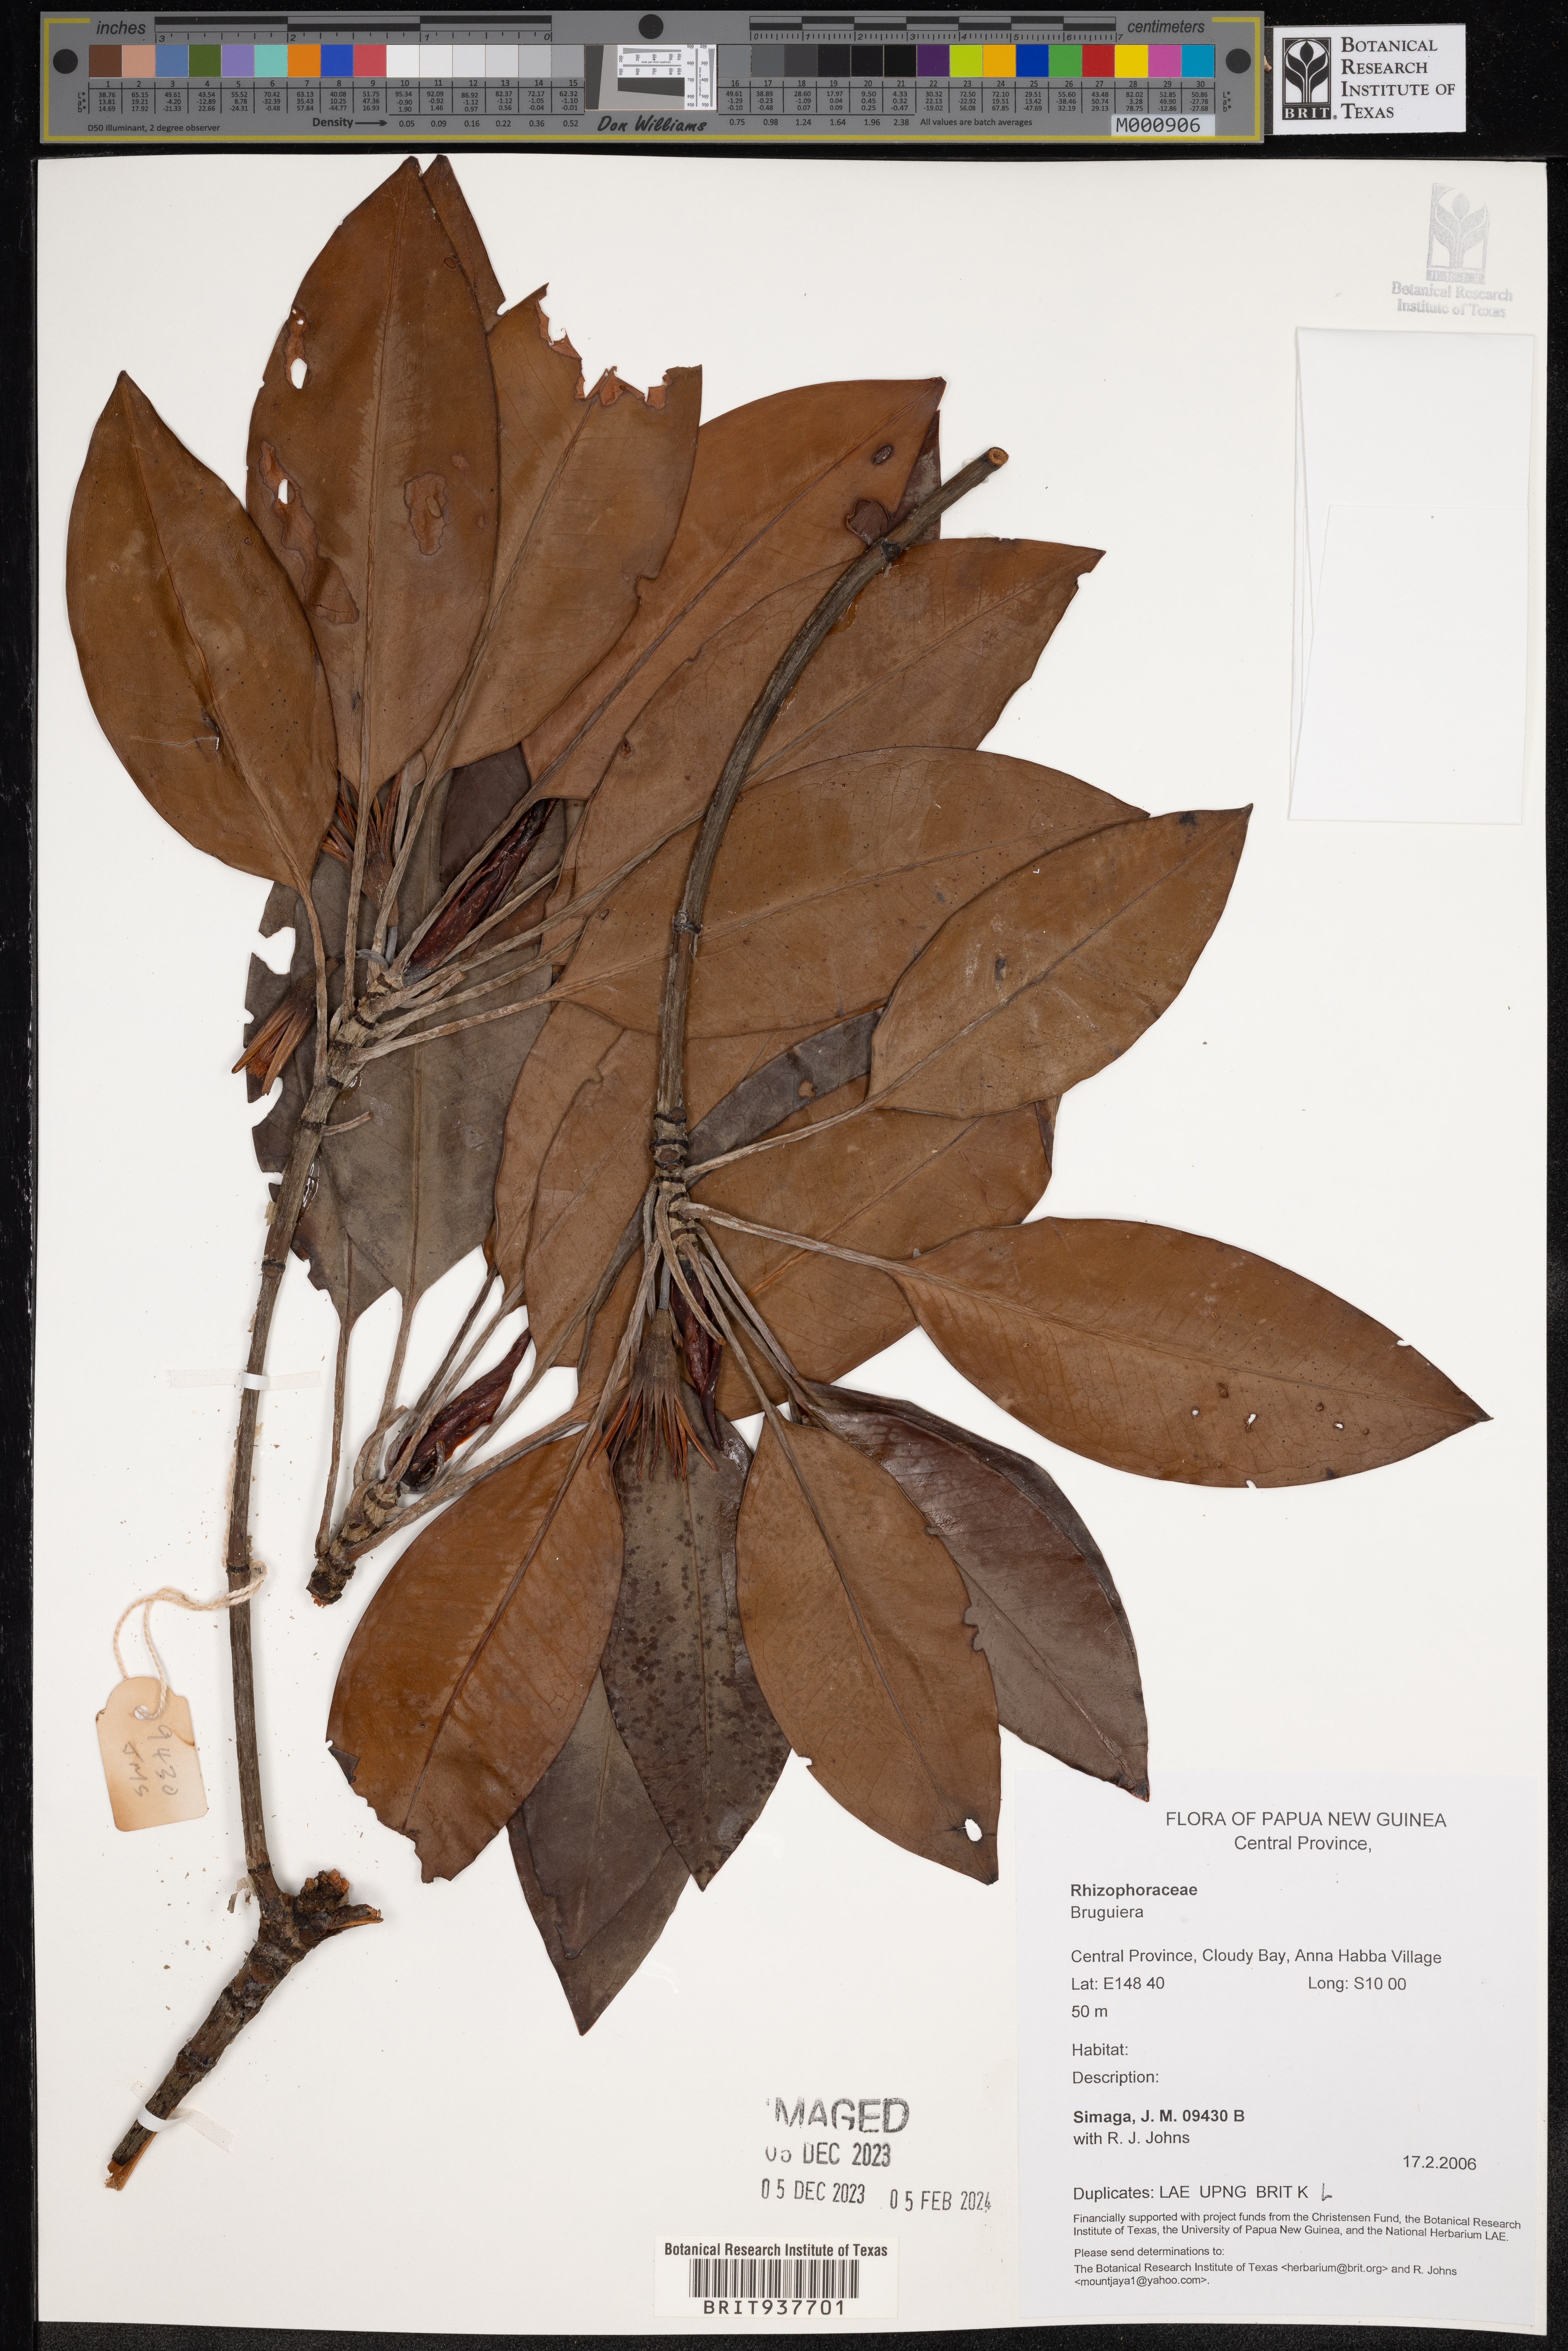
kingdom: Plantae
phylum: Tracheophyta
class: Magnoliopsida
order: Malpighiales
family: Rhizophoraceae
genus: Bruguiera
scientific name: Bruguiera
